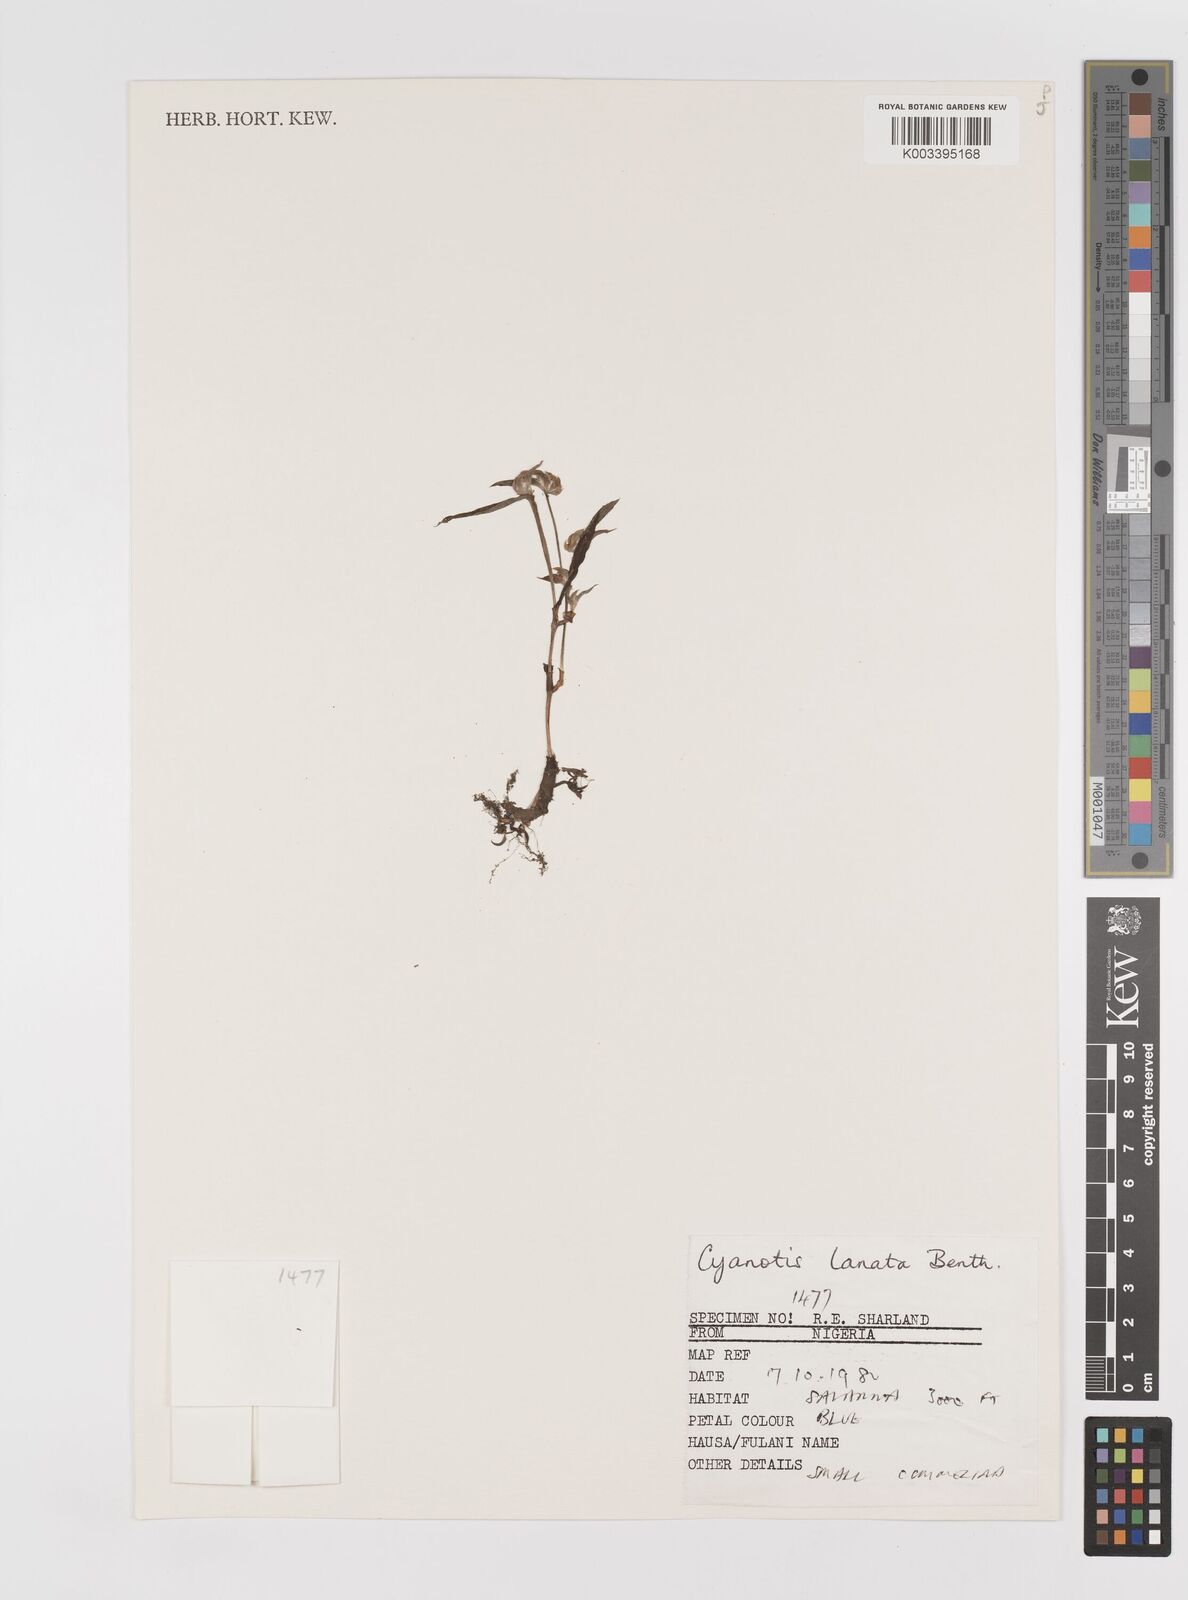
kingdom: Plantae
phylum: Tracheophyta
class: Liliopsida
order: Commelinales
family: Commelinaceae
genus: Cyanotis
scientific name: Cyanotis lanata
